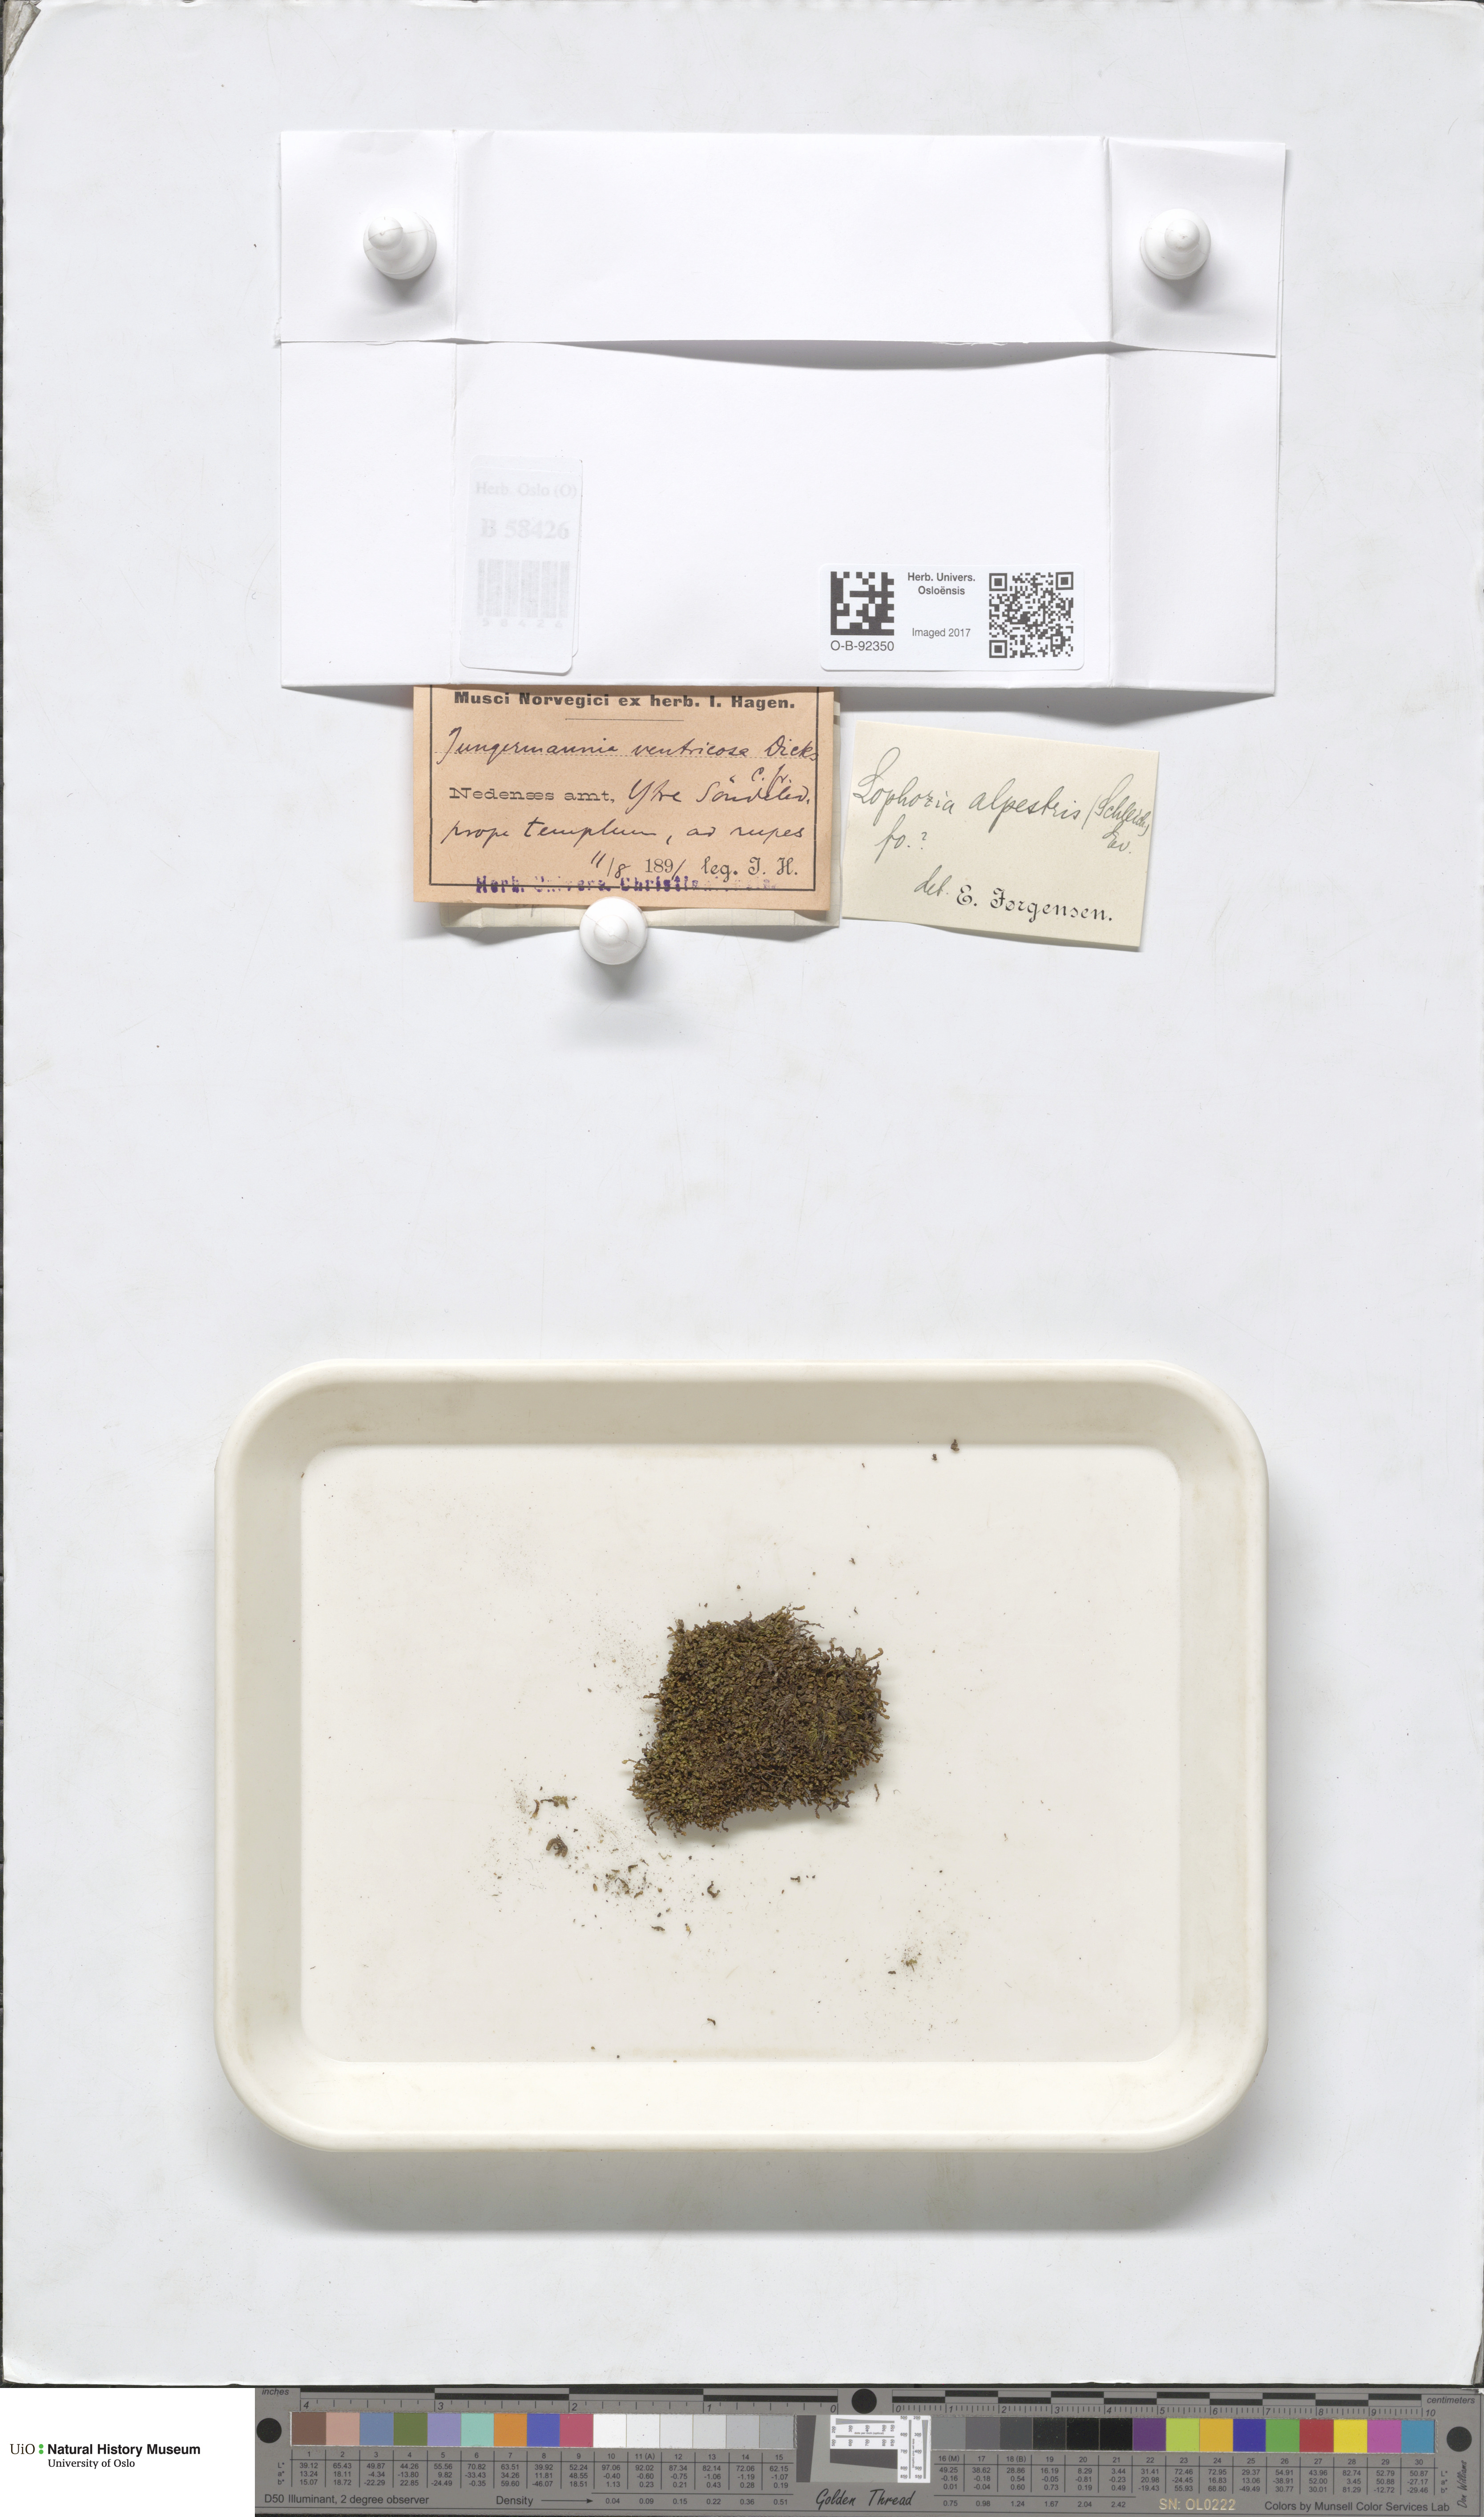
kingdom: Plantae
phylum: Marchantiophyta
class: Jungermanniopsida
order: Jungermanniales
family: Anastrophyllaceae
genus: Barbilophozia
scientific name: Barbilophozia sudetica
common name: Hill notchwort
